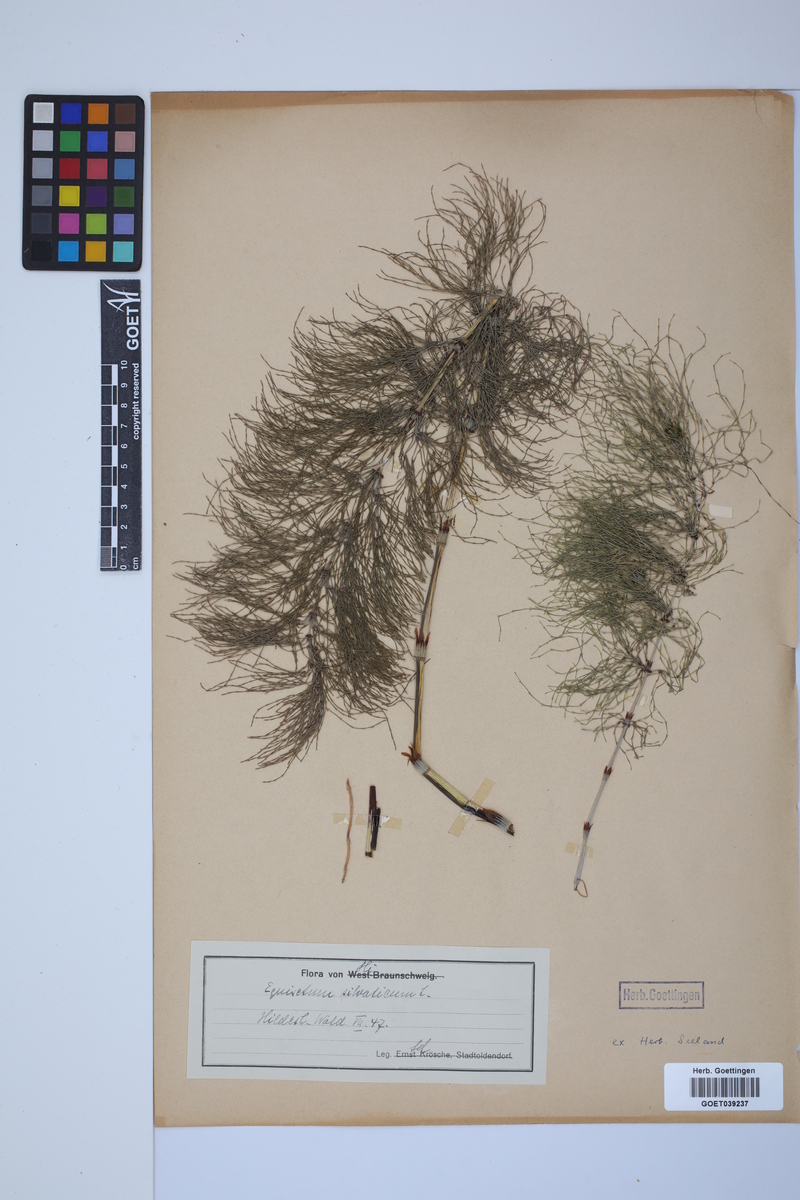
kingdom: Plantae
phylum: Tracheophyta
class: Polypodiopsida
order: Equisetales
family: Equisetaceae
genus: Equisetum
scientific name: Equisetum sylvaticum
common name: Wood horsetail
